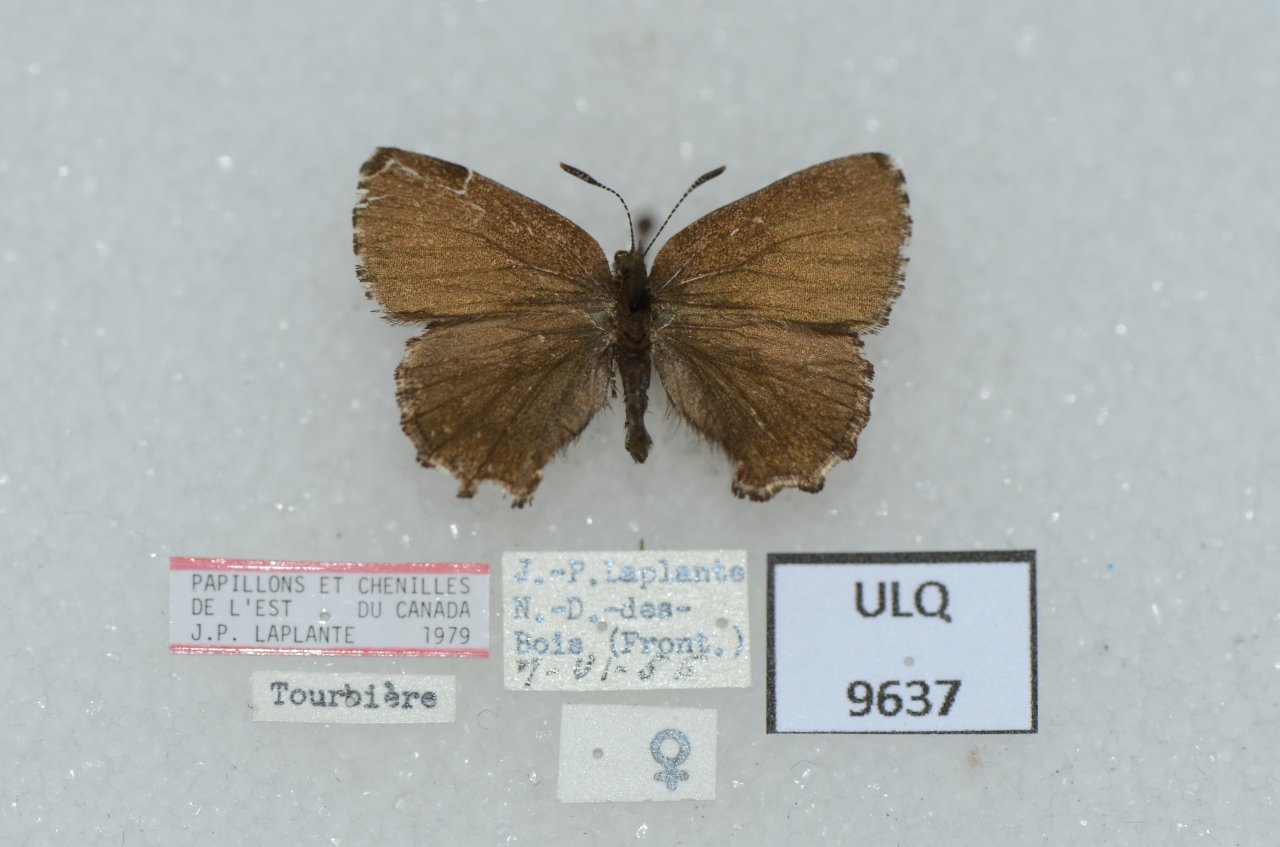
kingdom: Animalia
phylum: Arthropoda
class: Insecta
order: Lepidoptera
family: Lycaenidae
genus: Incisalia
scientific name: Incisalia lanoraieensis
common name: Bog Elfin
